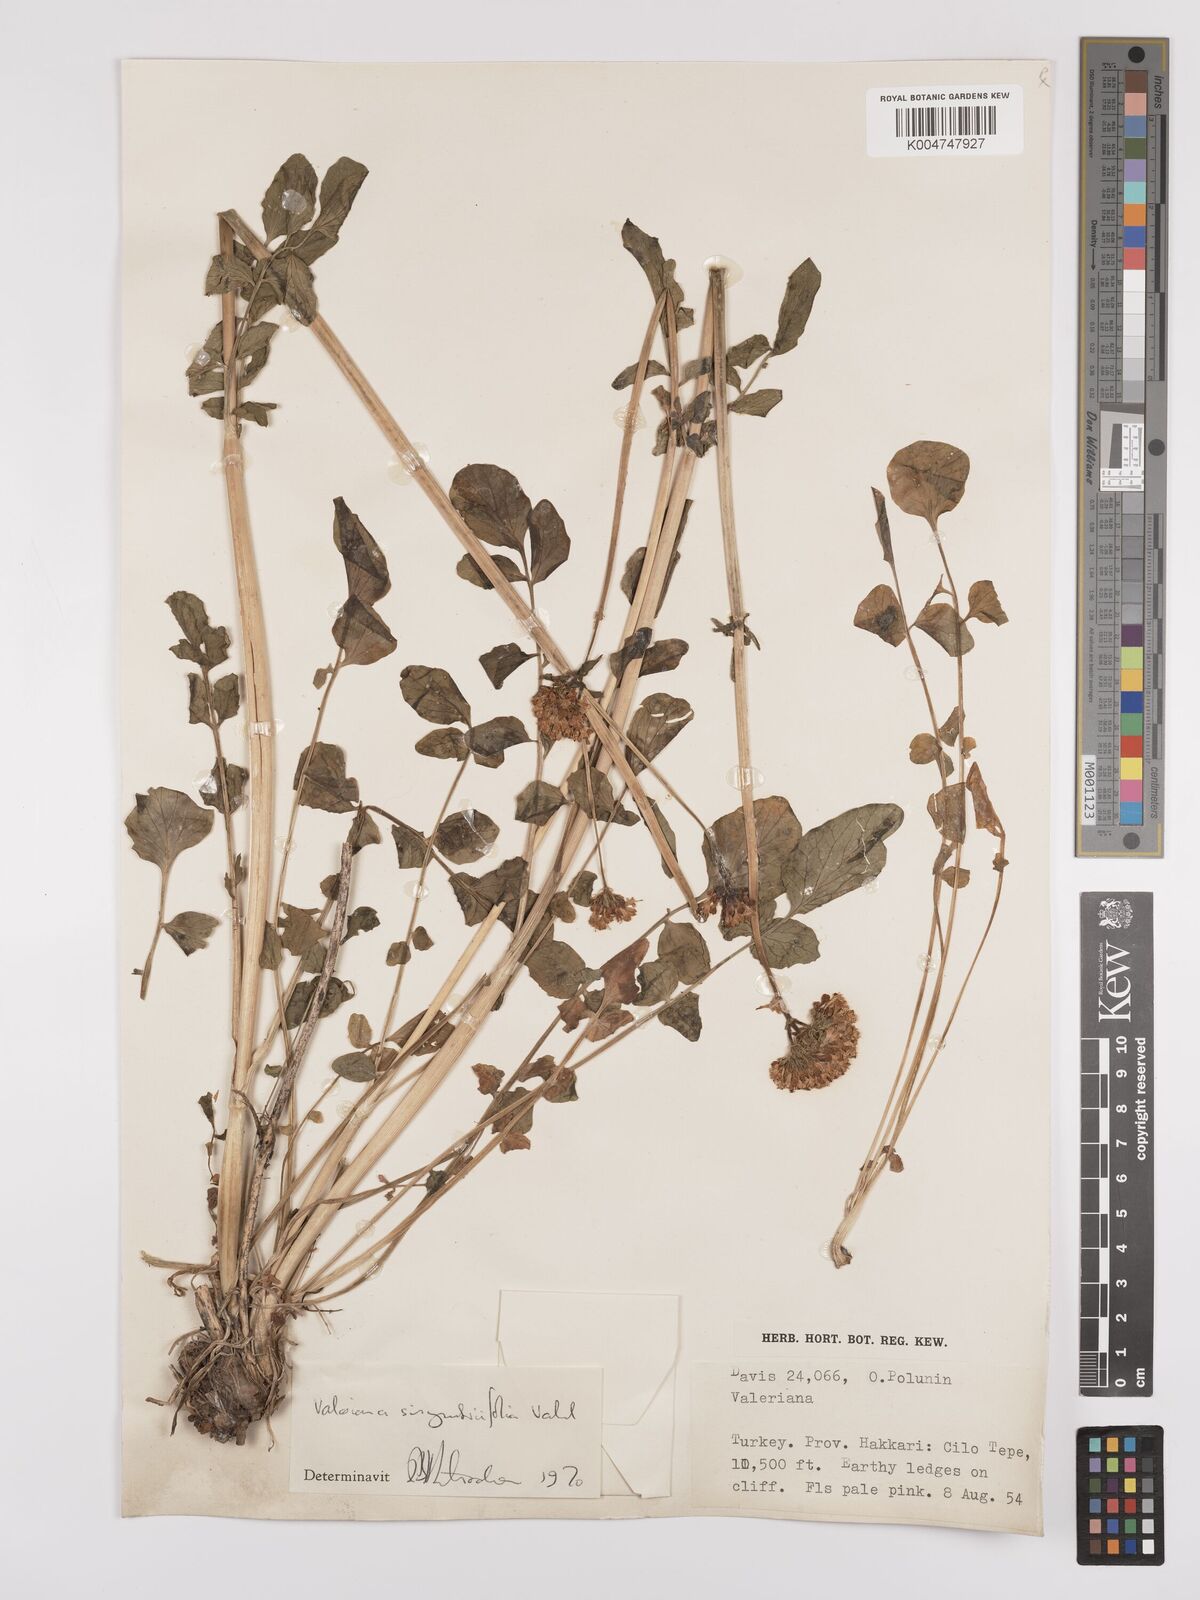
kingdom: Plantae
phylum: Tracheophyta
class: Magnoliopsida
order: Dipsacales
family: Caprifoliaceae
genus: Valeriana
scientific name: Valeriana
